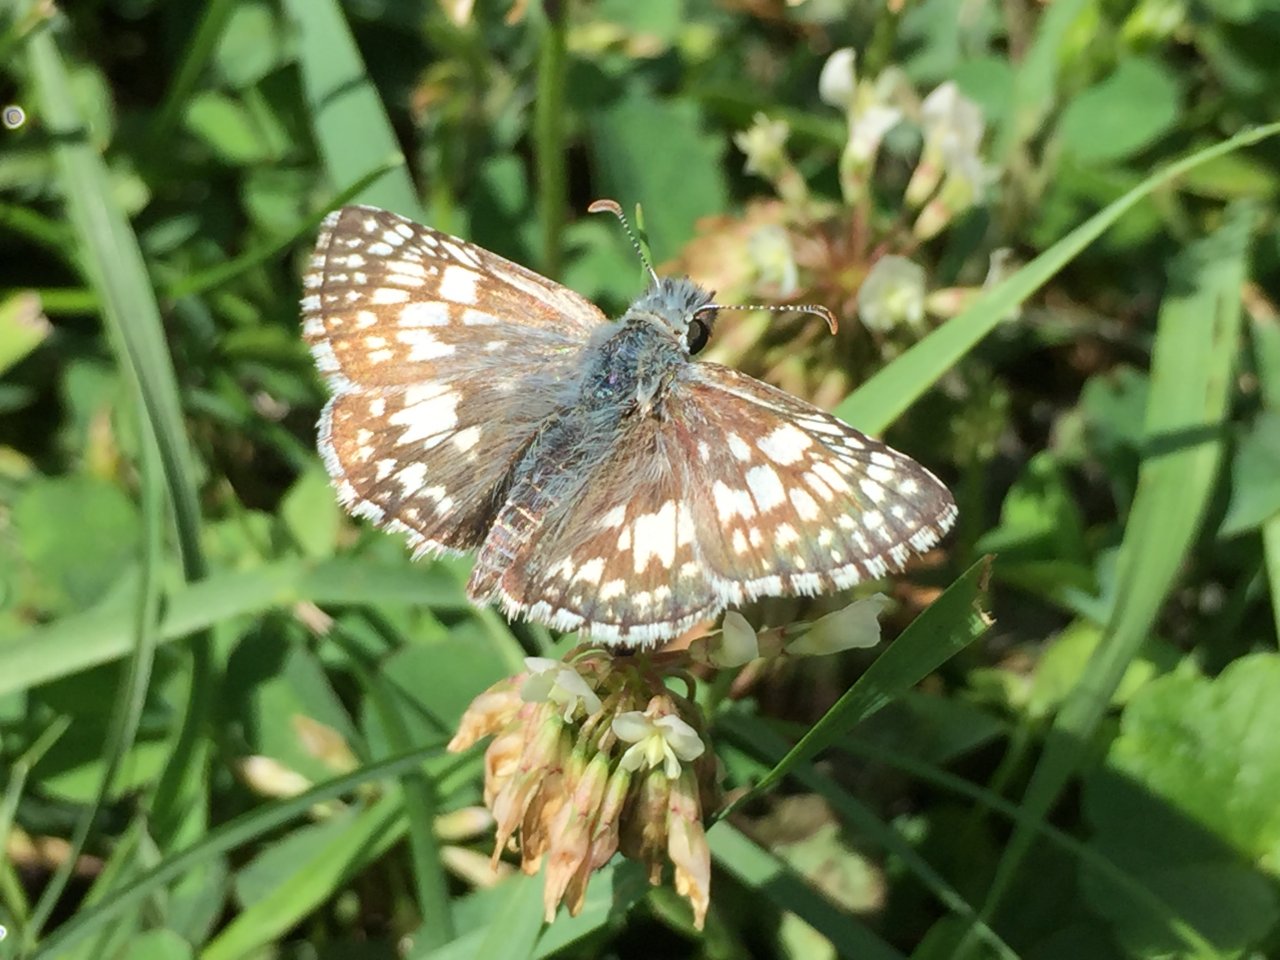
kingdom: Animalia
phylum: Arthropoda
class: Insecta
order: Lepidoptera
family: Hesperiidae
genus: Pyrgus
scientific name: Pyrgus communis
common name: Common Checkered-Skipper
